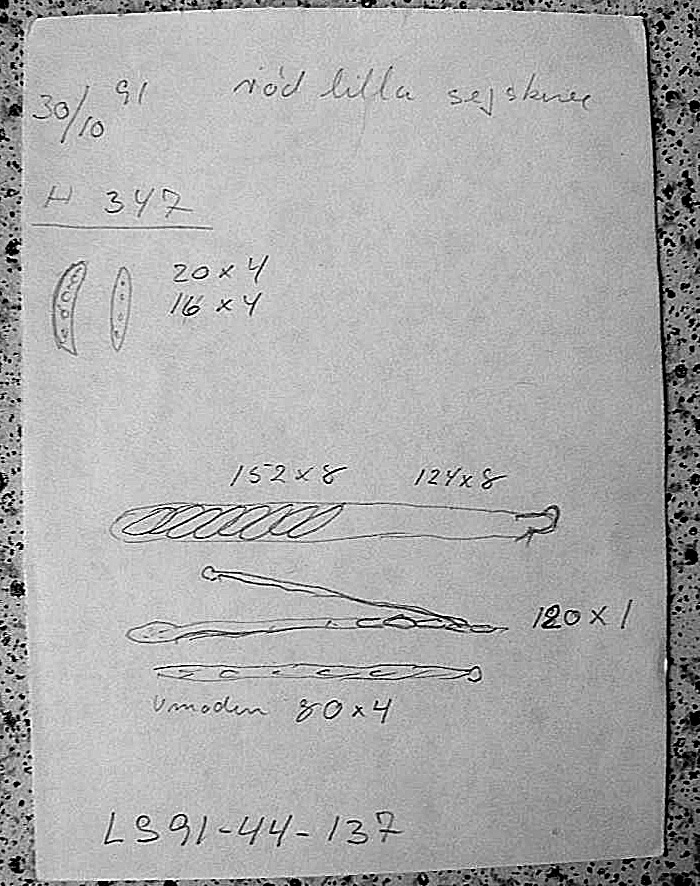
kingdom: Fungi
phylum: Ascomycota
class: Leotiomycetes
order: Helotiales
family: Gelatinodiscaceae
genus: Ascocoryne
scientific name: Ascocoryne
